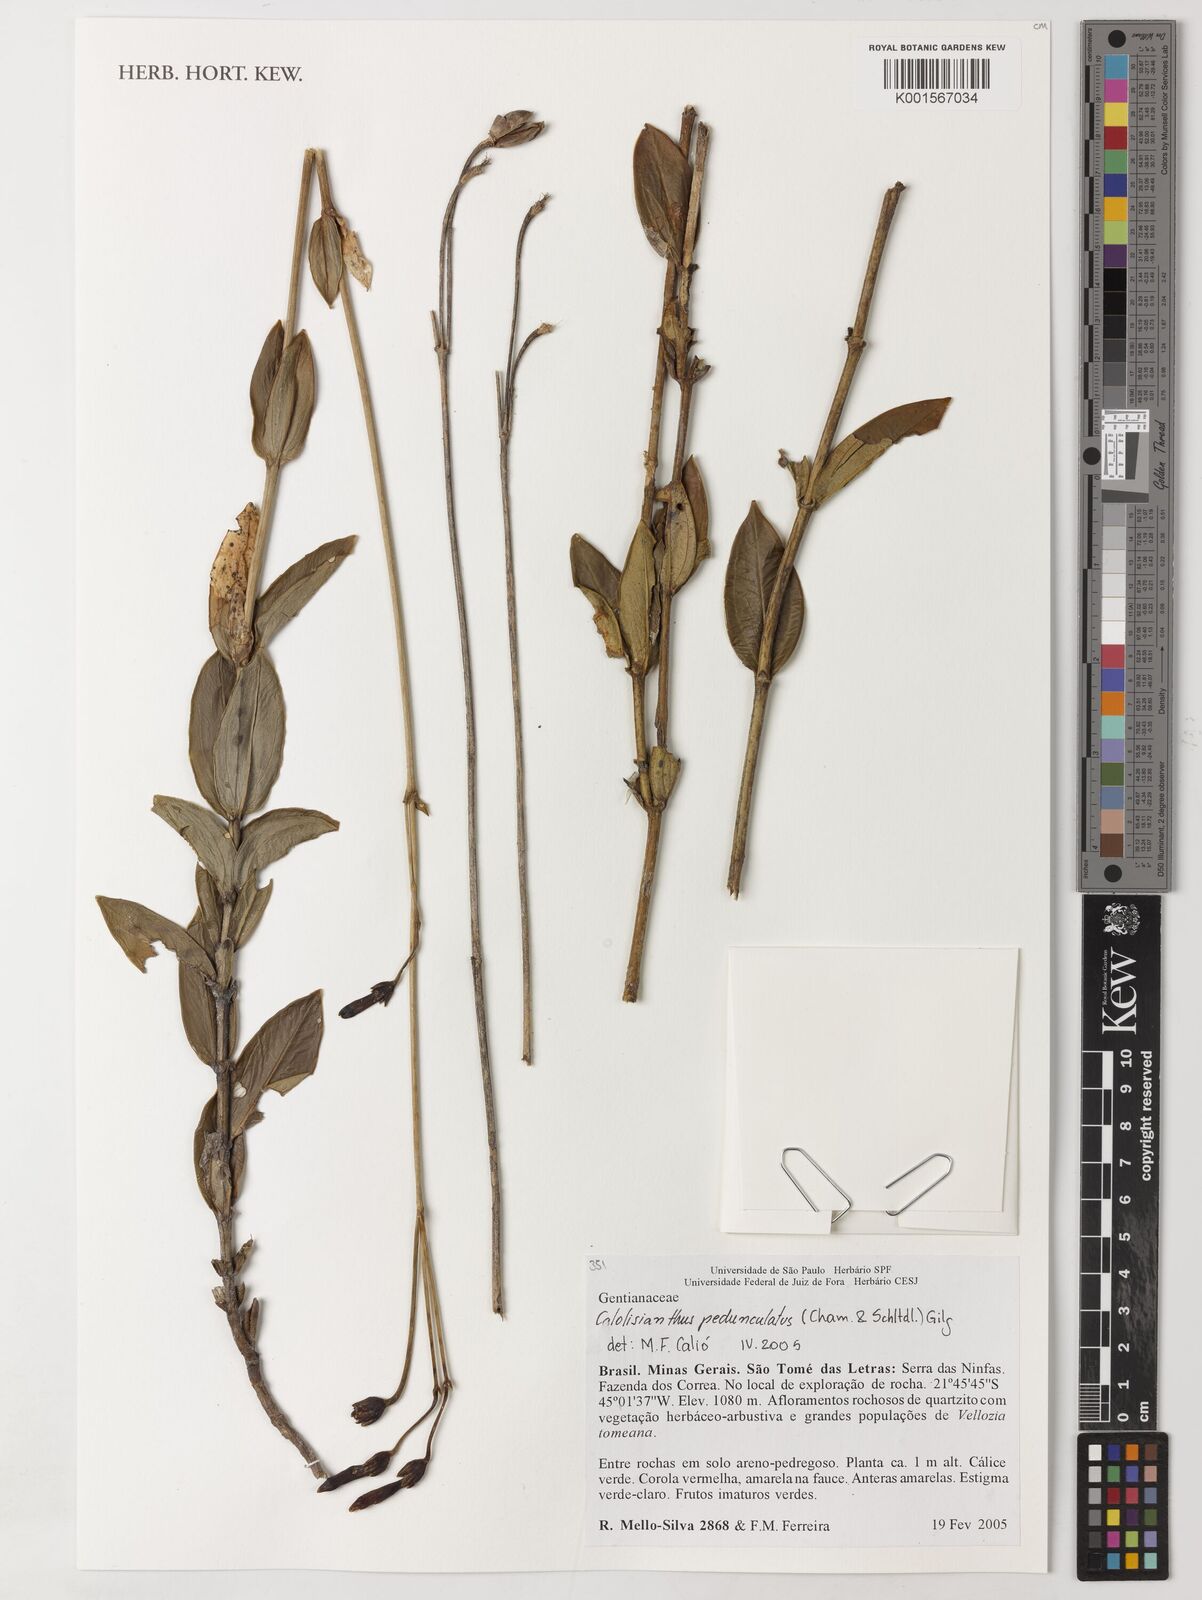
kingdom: Plantae
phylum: Tracheophyta
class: Magnoliopsida
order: Gentianales
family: Gentianaceae
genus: Calolisianthus
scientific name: Calolisianthus pedunculatus
